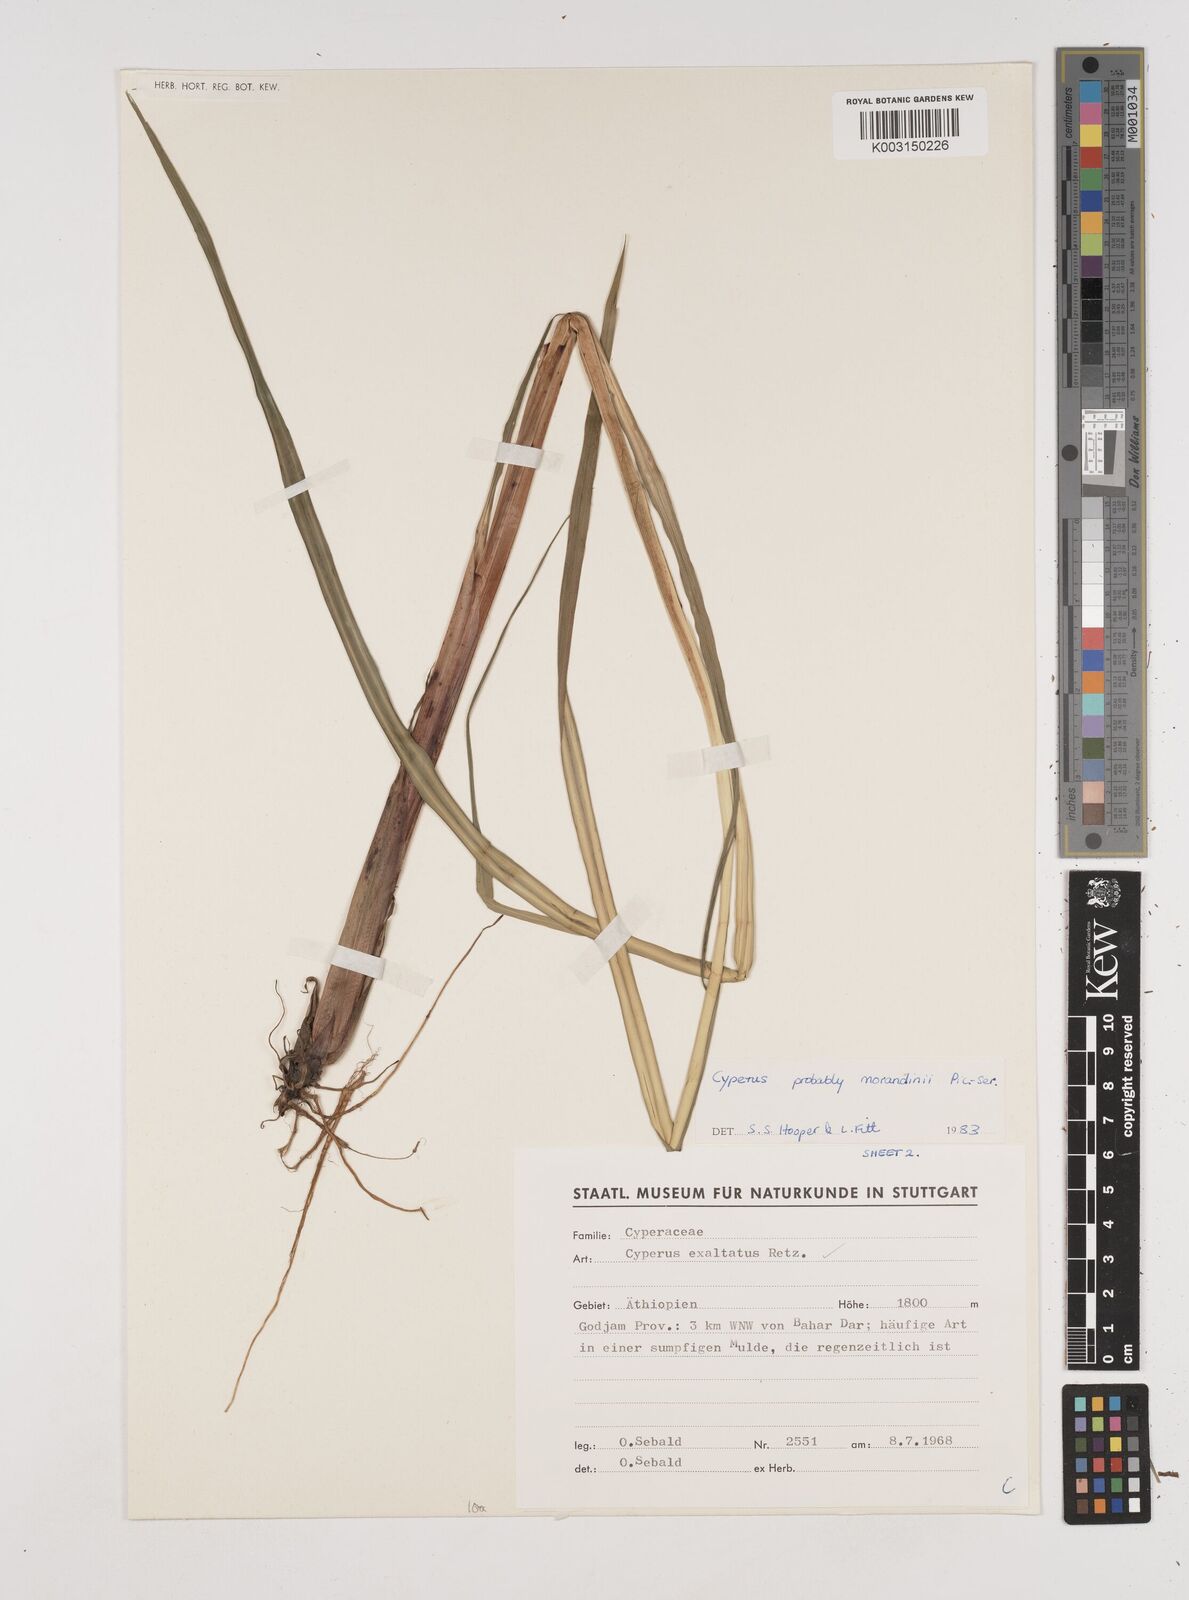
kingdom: Plantae
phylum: Tracheophyta
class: Liliopsida
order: Poales
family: Cyperaceae
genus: Cyperus
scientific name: Cyperus penzoanus
